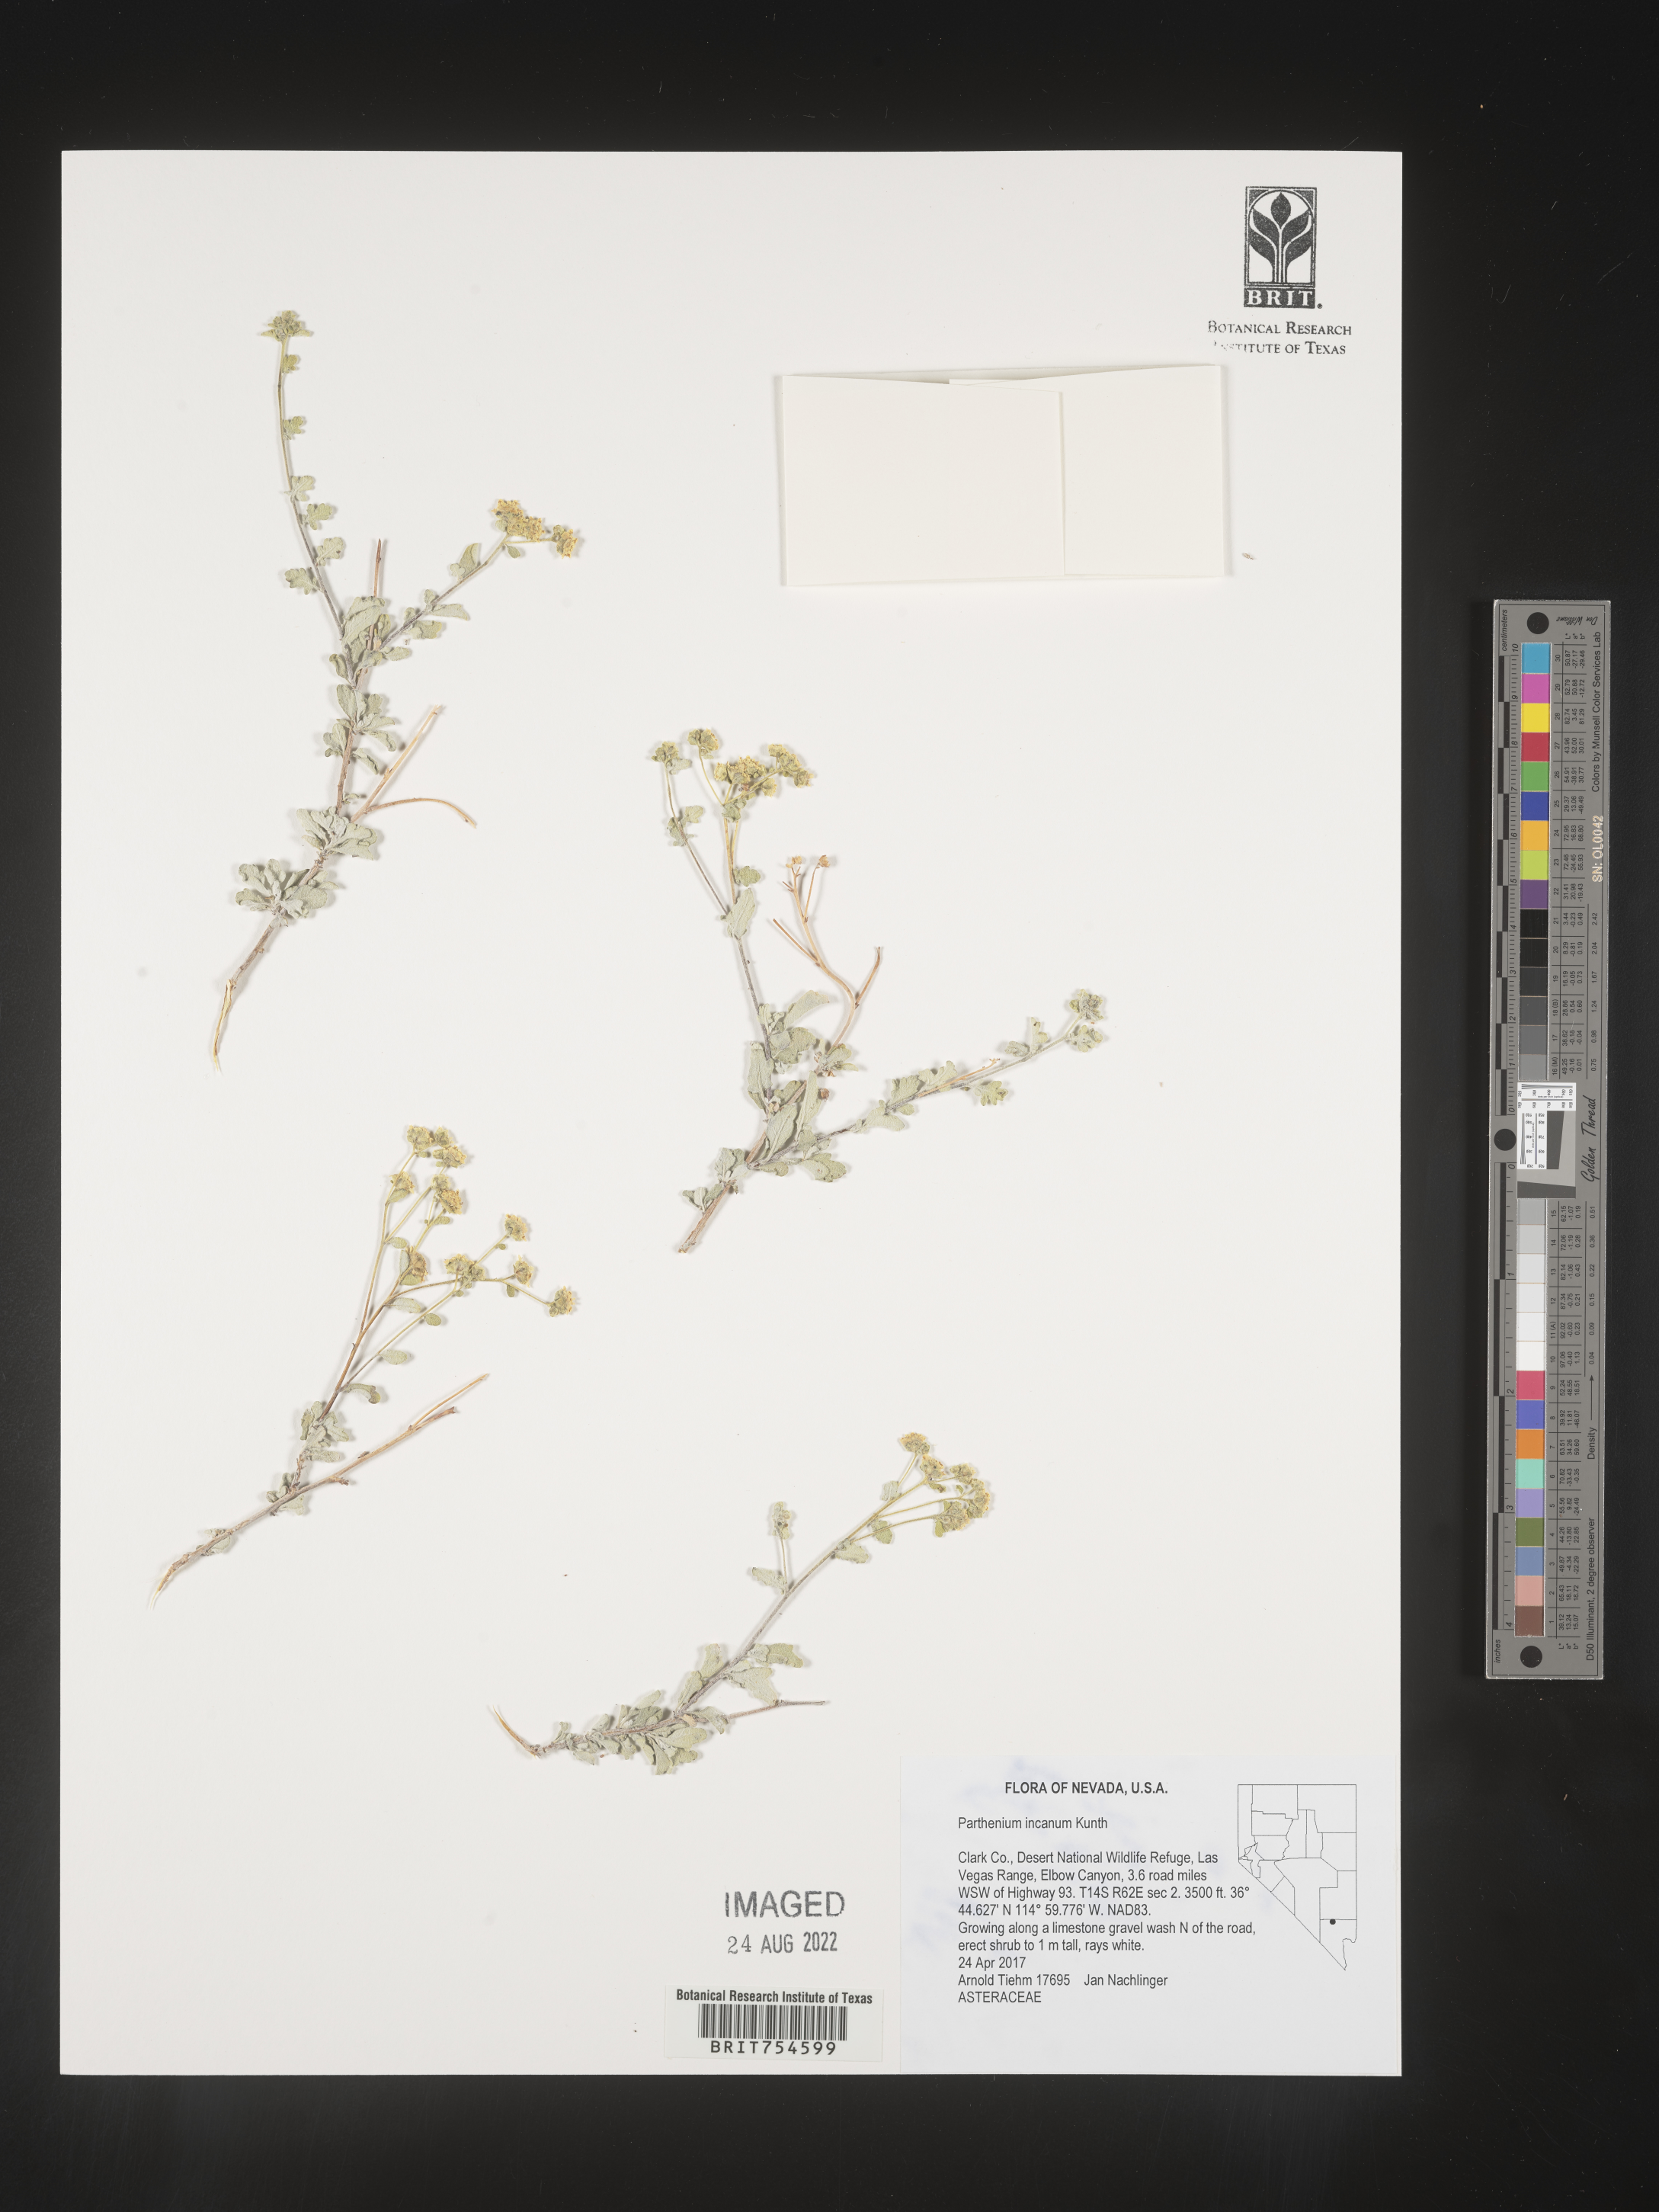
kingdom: Plantae
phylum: Tracheophyta
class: Magnoliopsida
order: Asterales
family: Asteraceae
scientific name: Asteraceae
